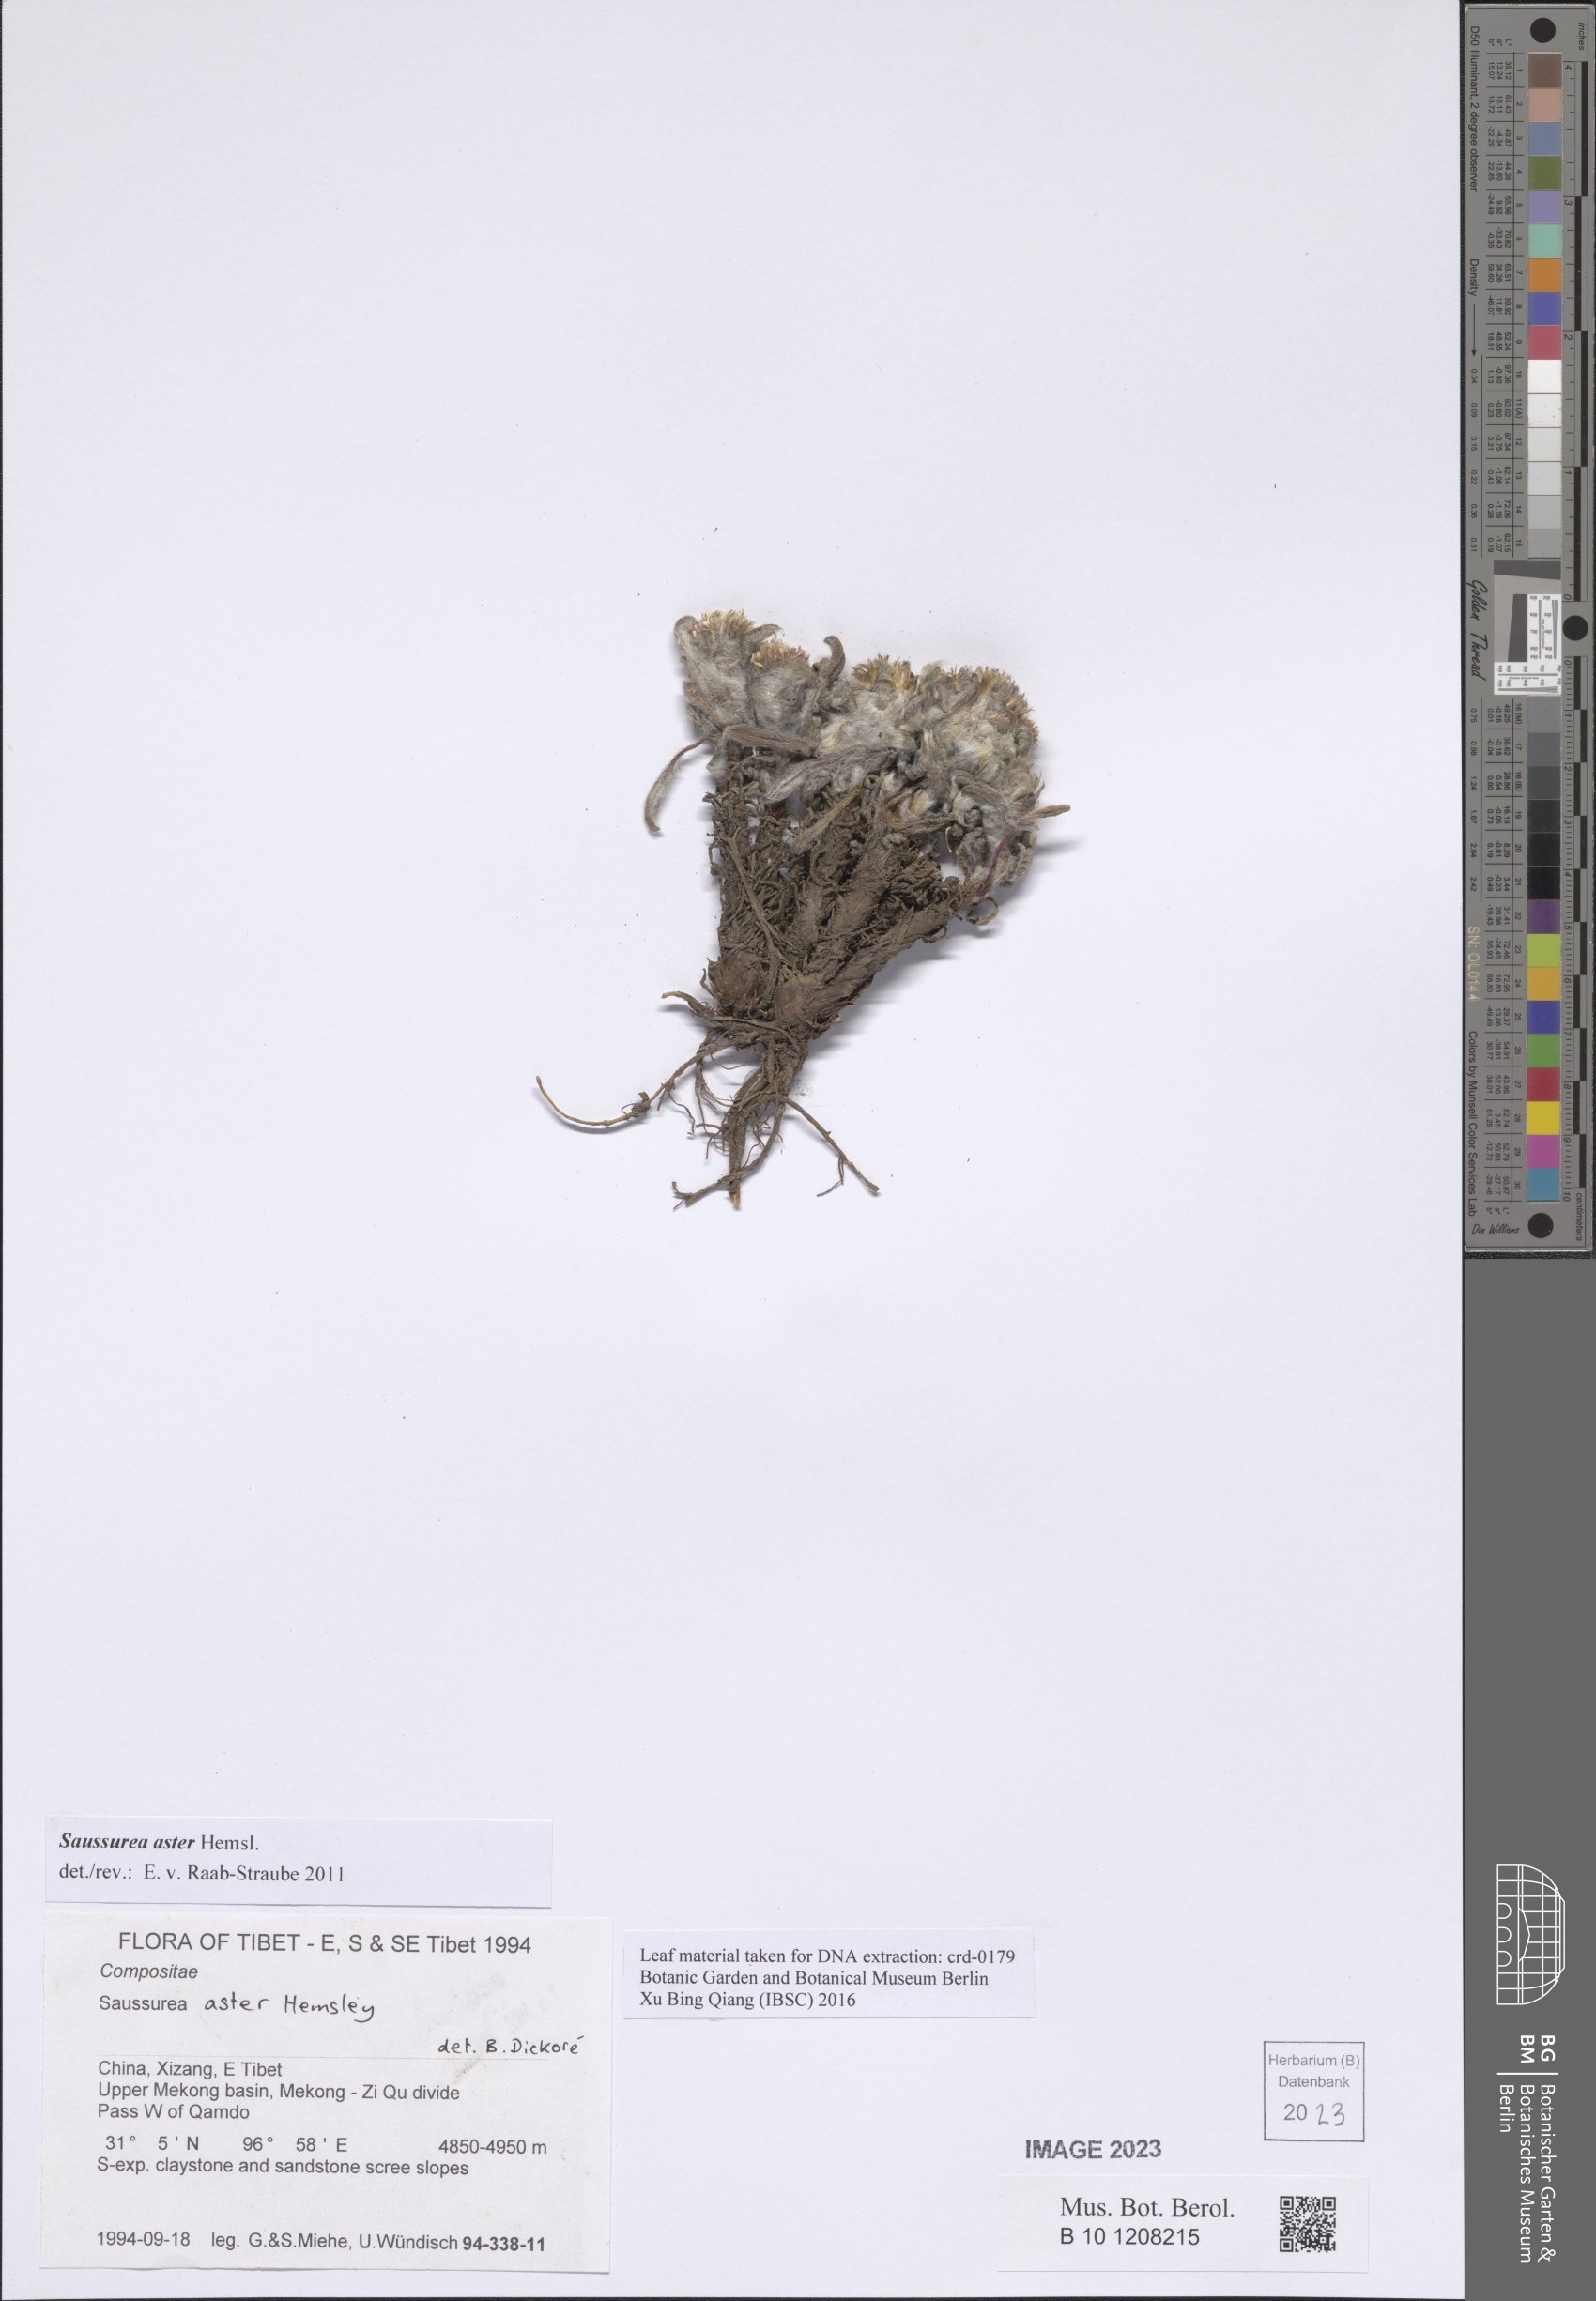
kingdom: Plantae
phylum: Tracheophyta
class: Magnoliopsida
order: Asterales
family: Asteraceae
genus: Saussurea
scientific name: Saussurea aster
